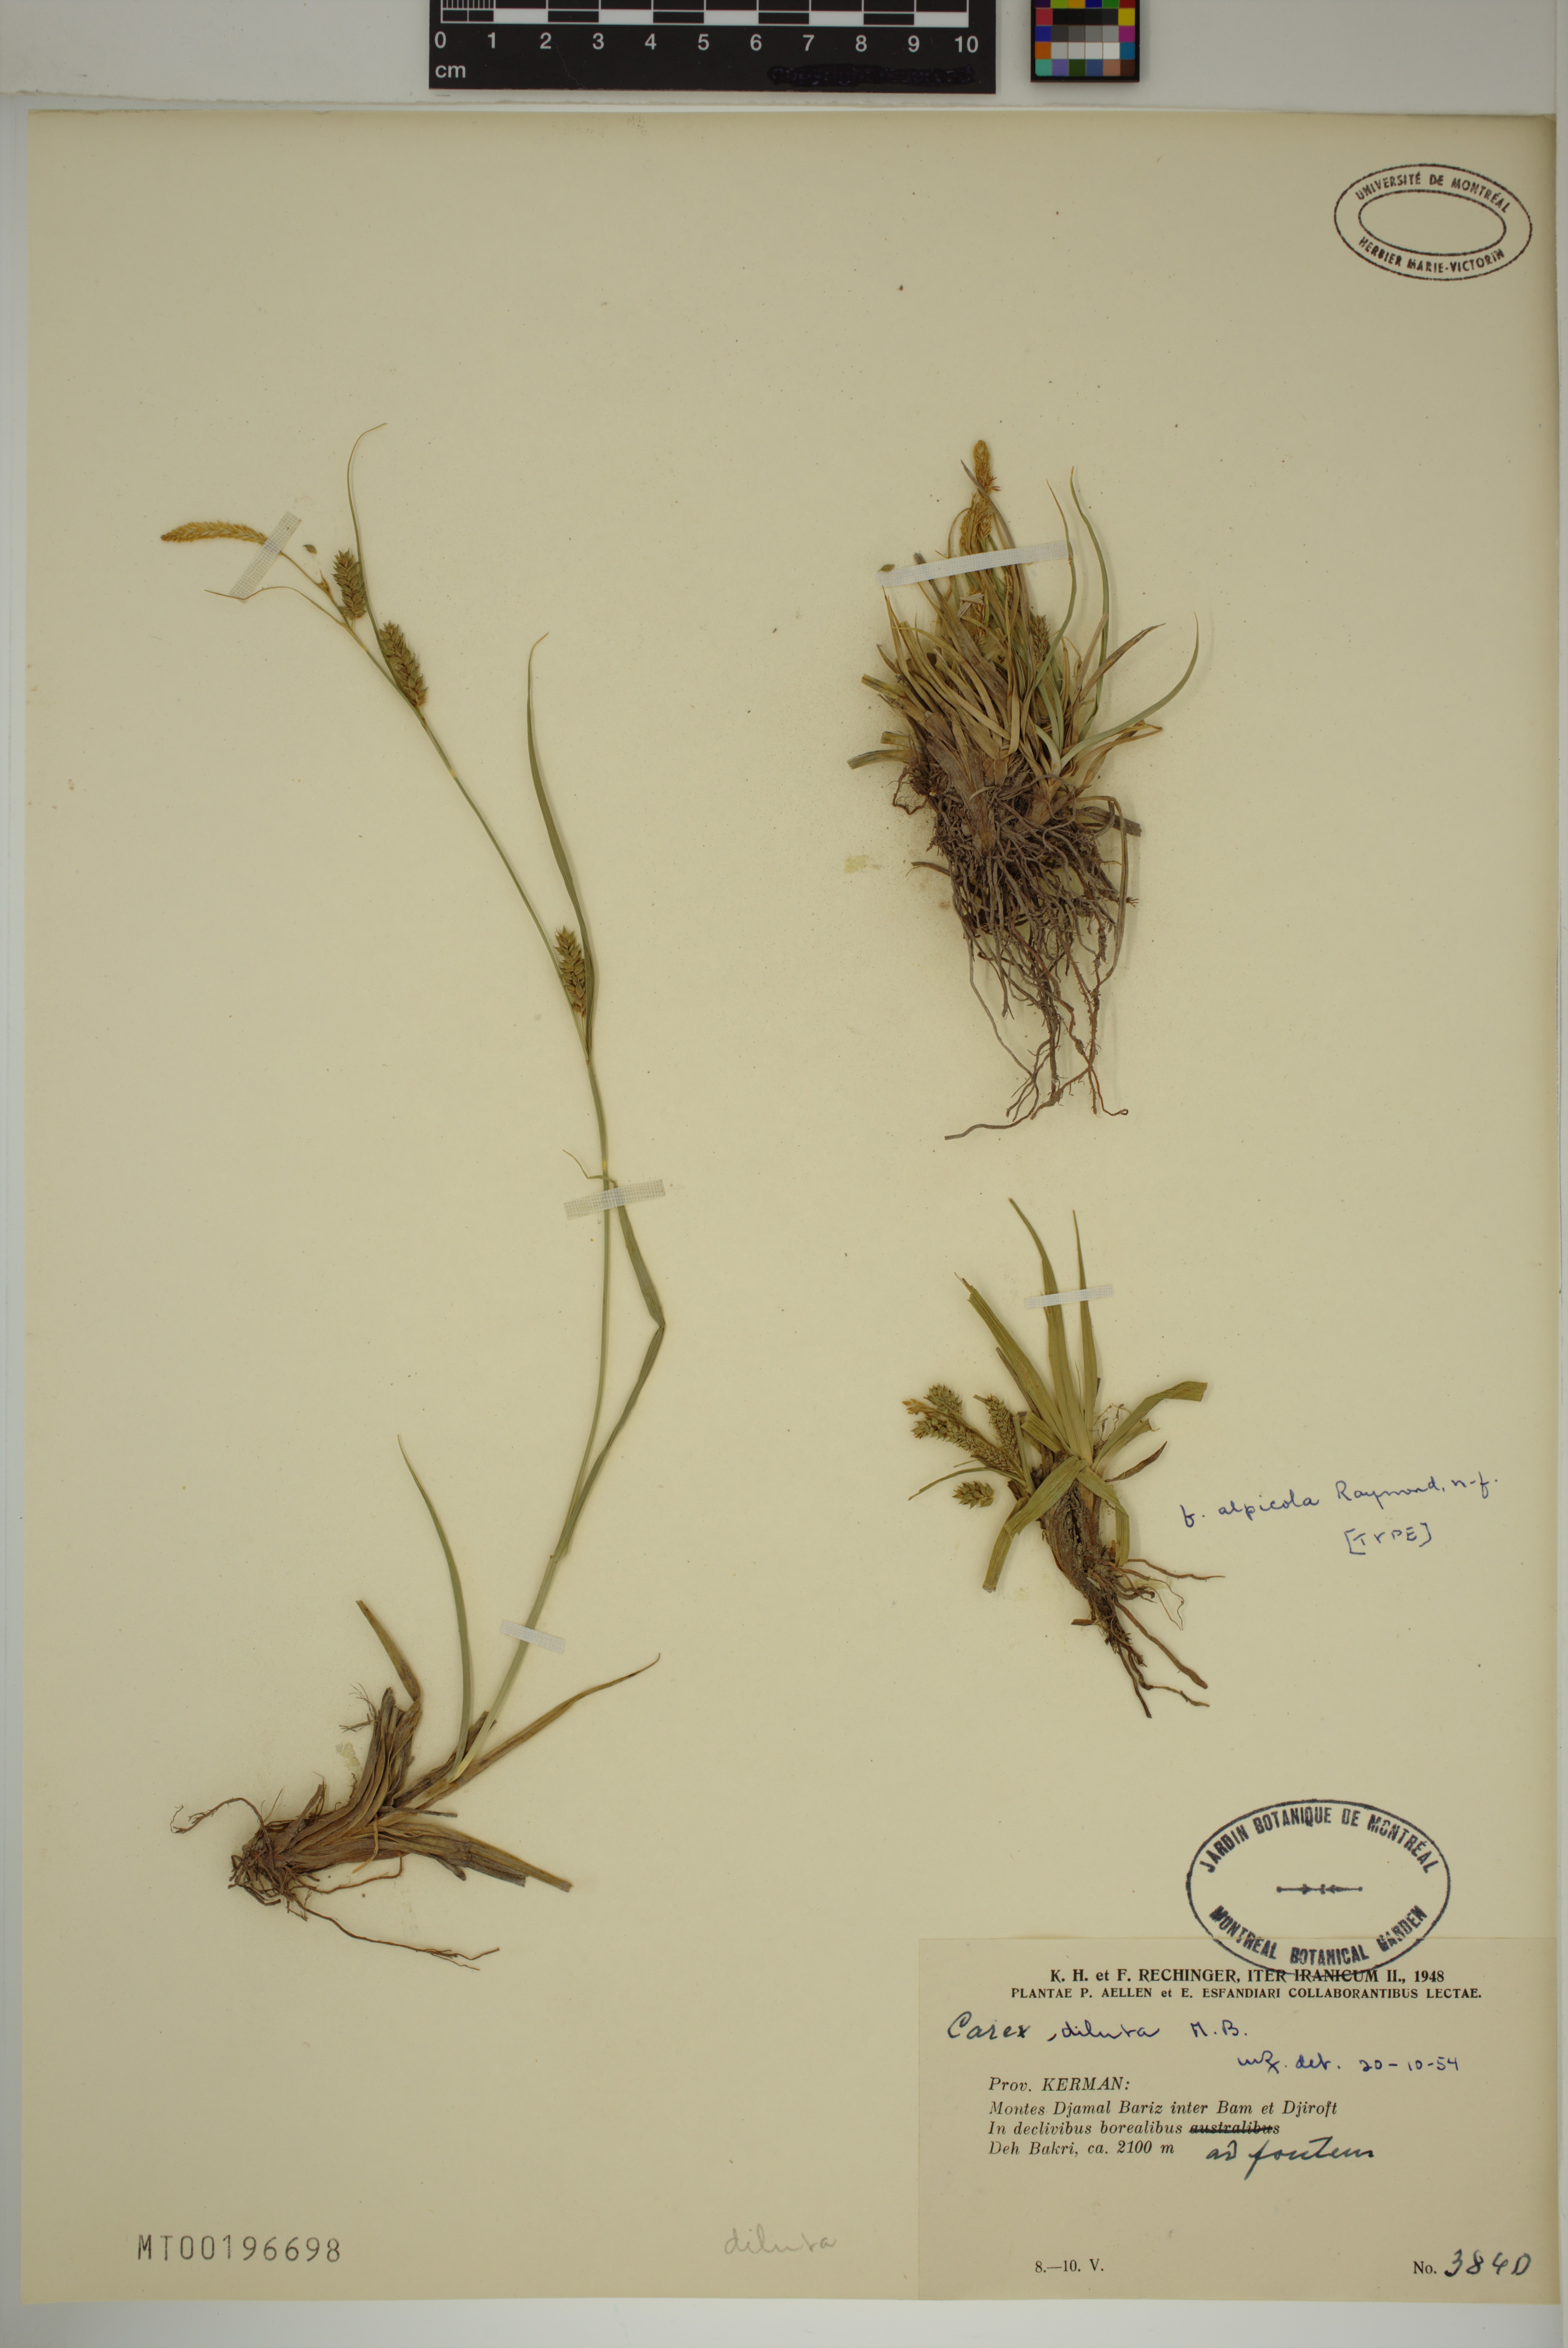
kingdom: Plantae
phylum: Tracheophyta
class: Liliopsida
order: Poales
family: Cyperaceae
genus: Carex
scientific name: Carex diluta
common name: Sedge
